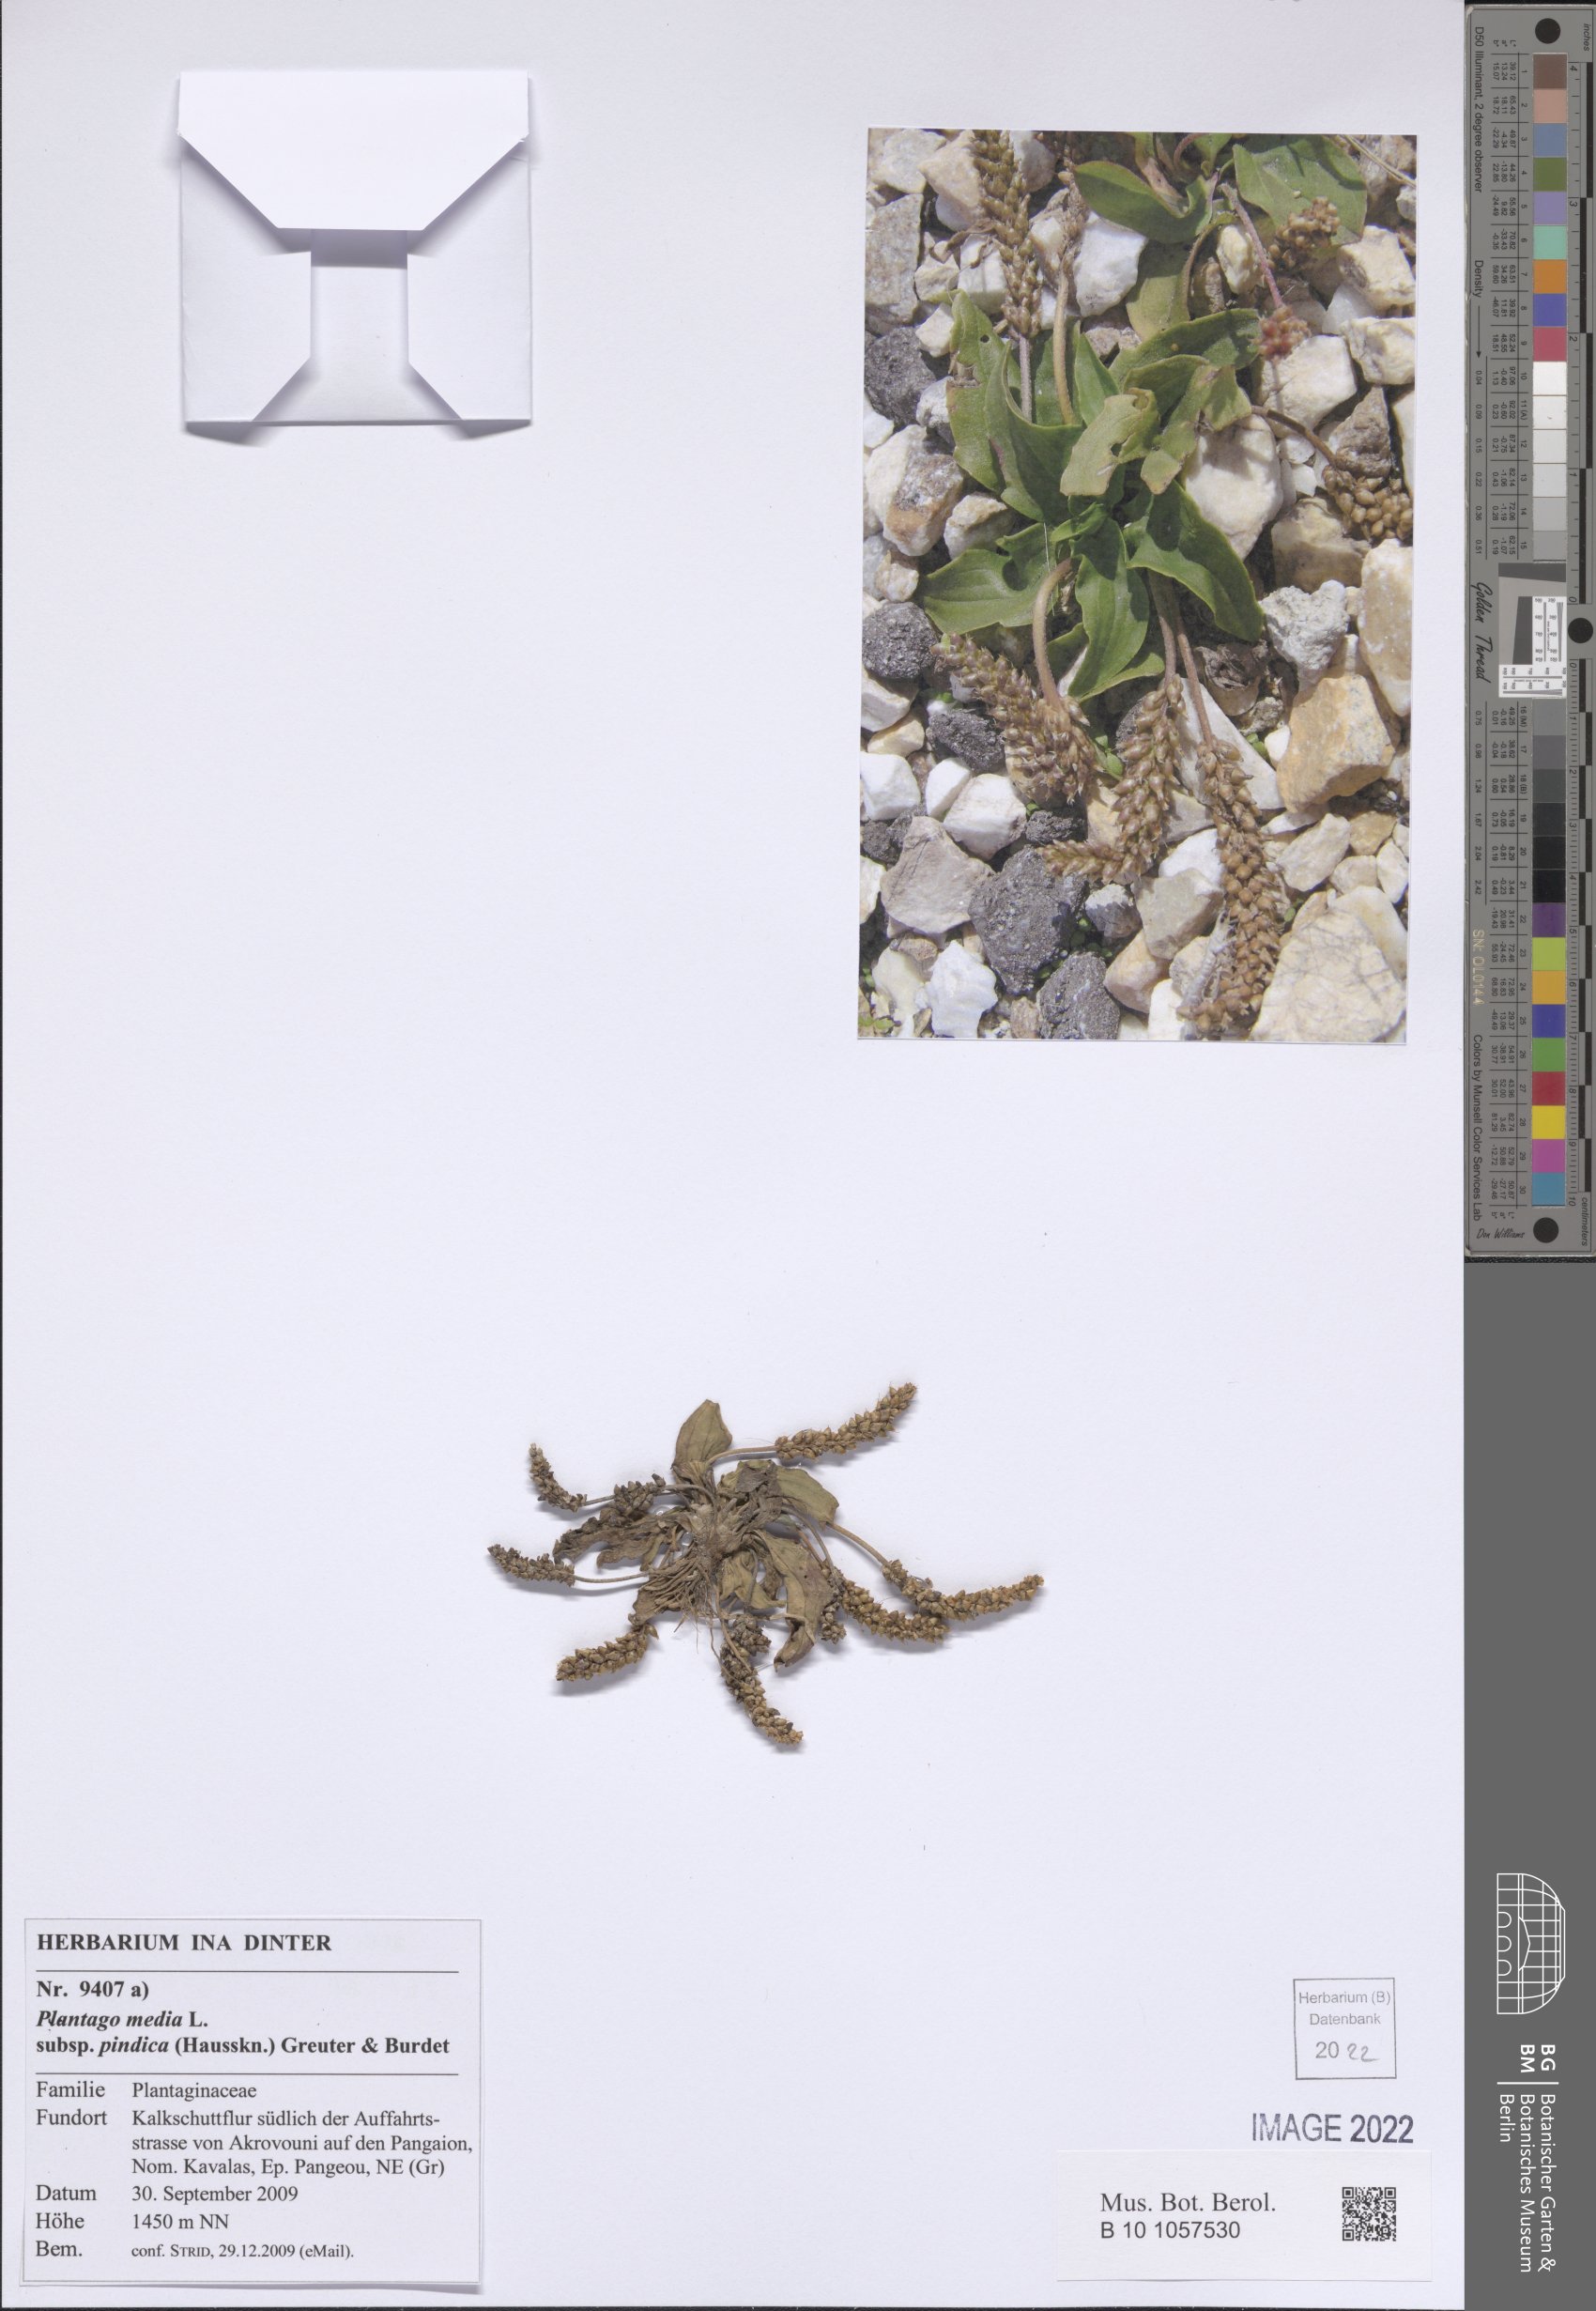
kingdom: Plantae
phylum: Tracheophyta
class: Magnoliopsida
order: Lamiales
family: Plantaginaceae
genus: Plantago
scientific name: Plantago media
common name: Hoary plantain
